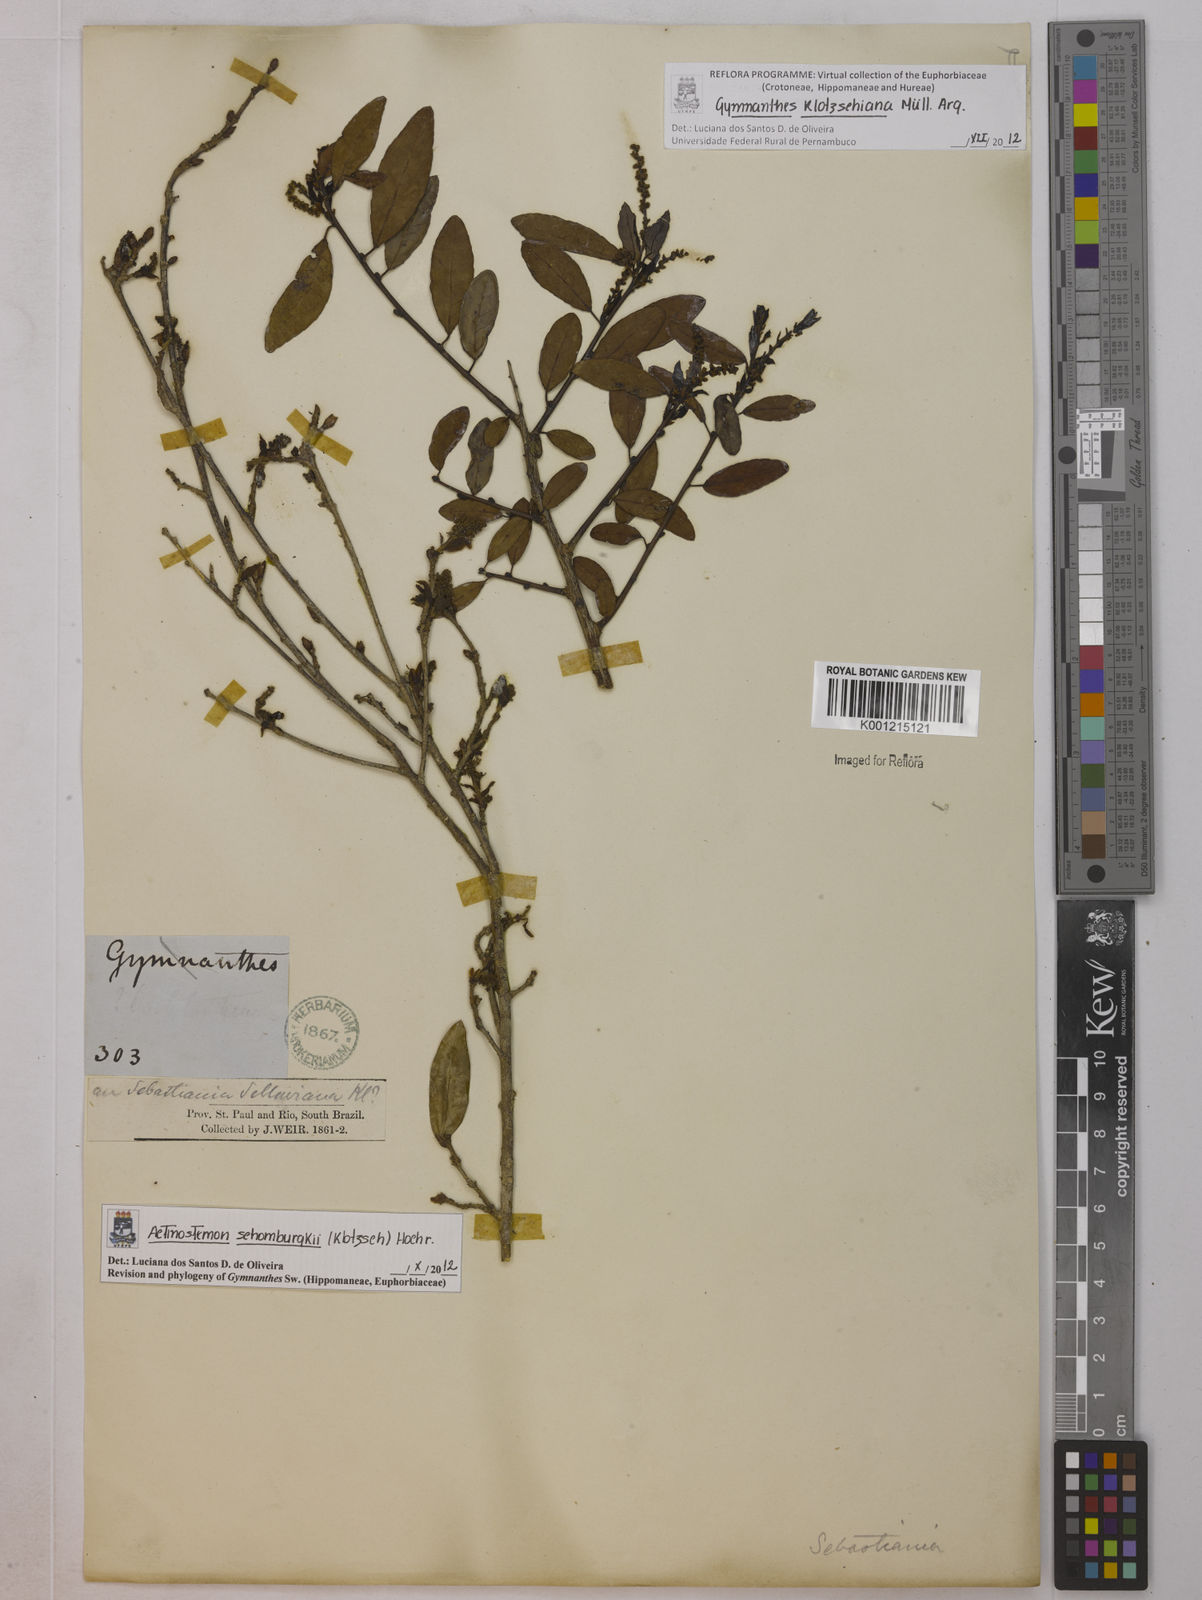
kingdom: Plantae
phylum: Tracheophyta
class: Magnoliopsida
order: Malpighiales
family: Euphorbiaceae
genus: Gymnanthes
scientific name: Gymnanthes
